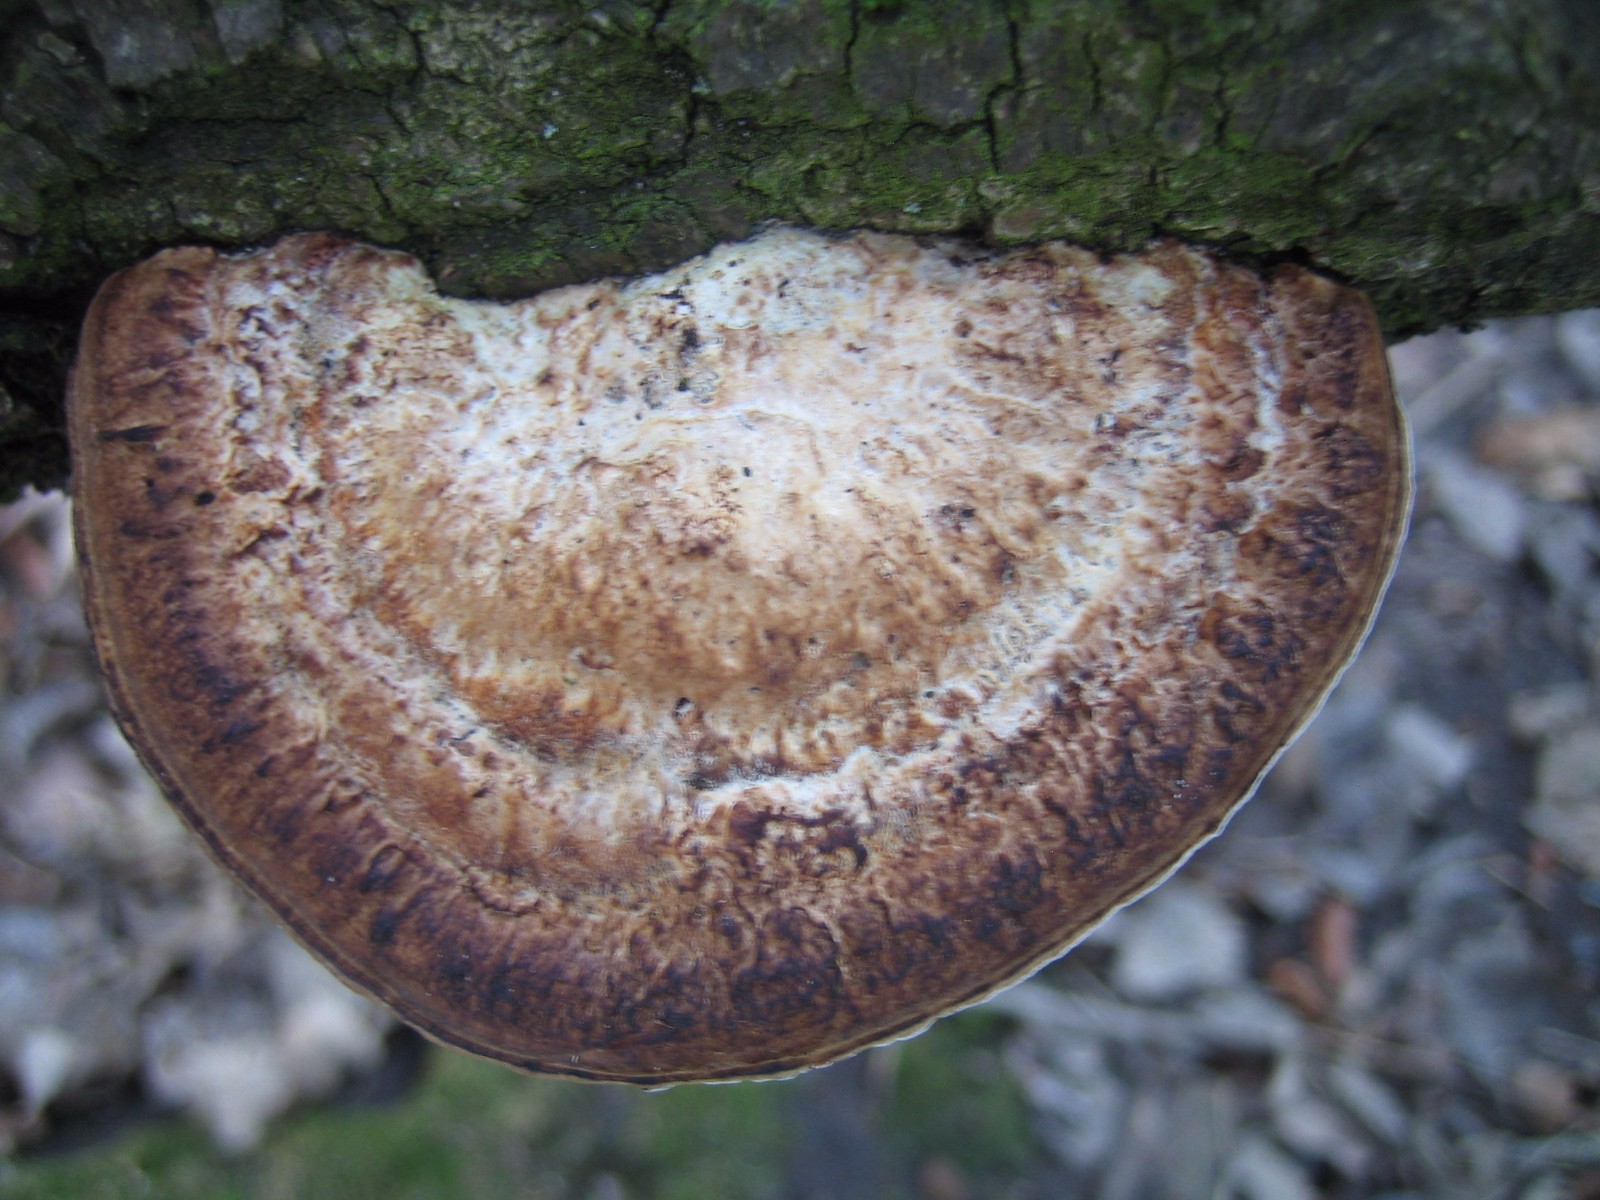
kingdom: Fungi
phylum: Basidiomycota
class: Agaricomycetes
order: Polyporales
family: Polyporaceae
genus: Daedaleopsis
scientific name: Daedaleopsis confragosa
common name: rødmende læderporesvamp
